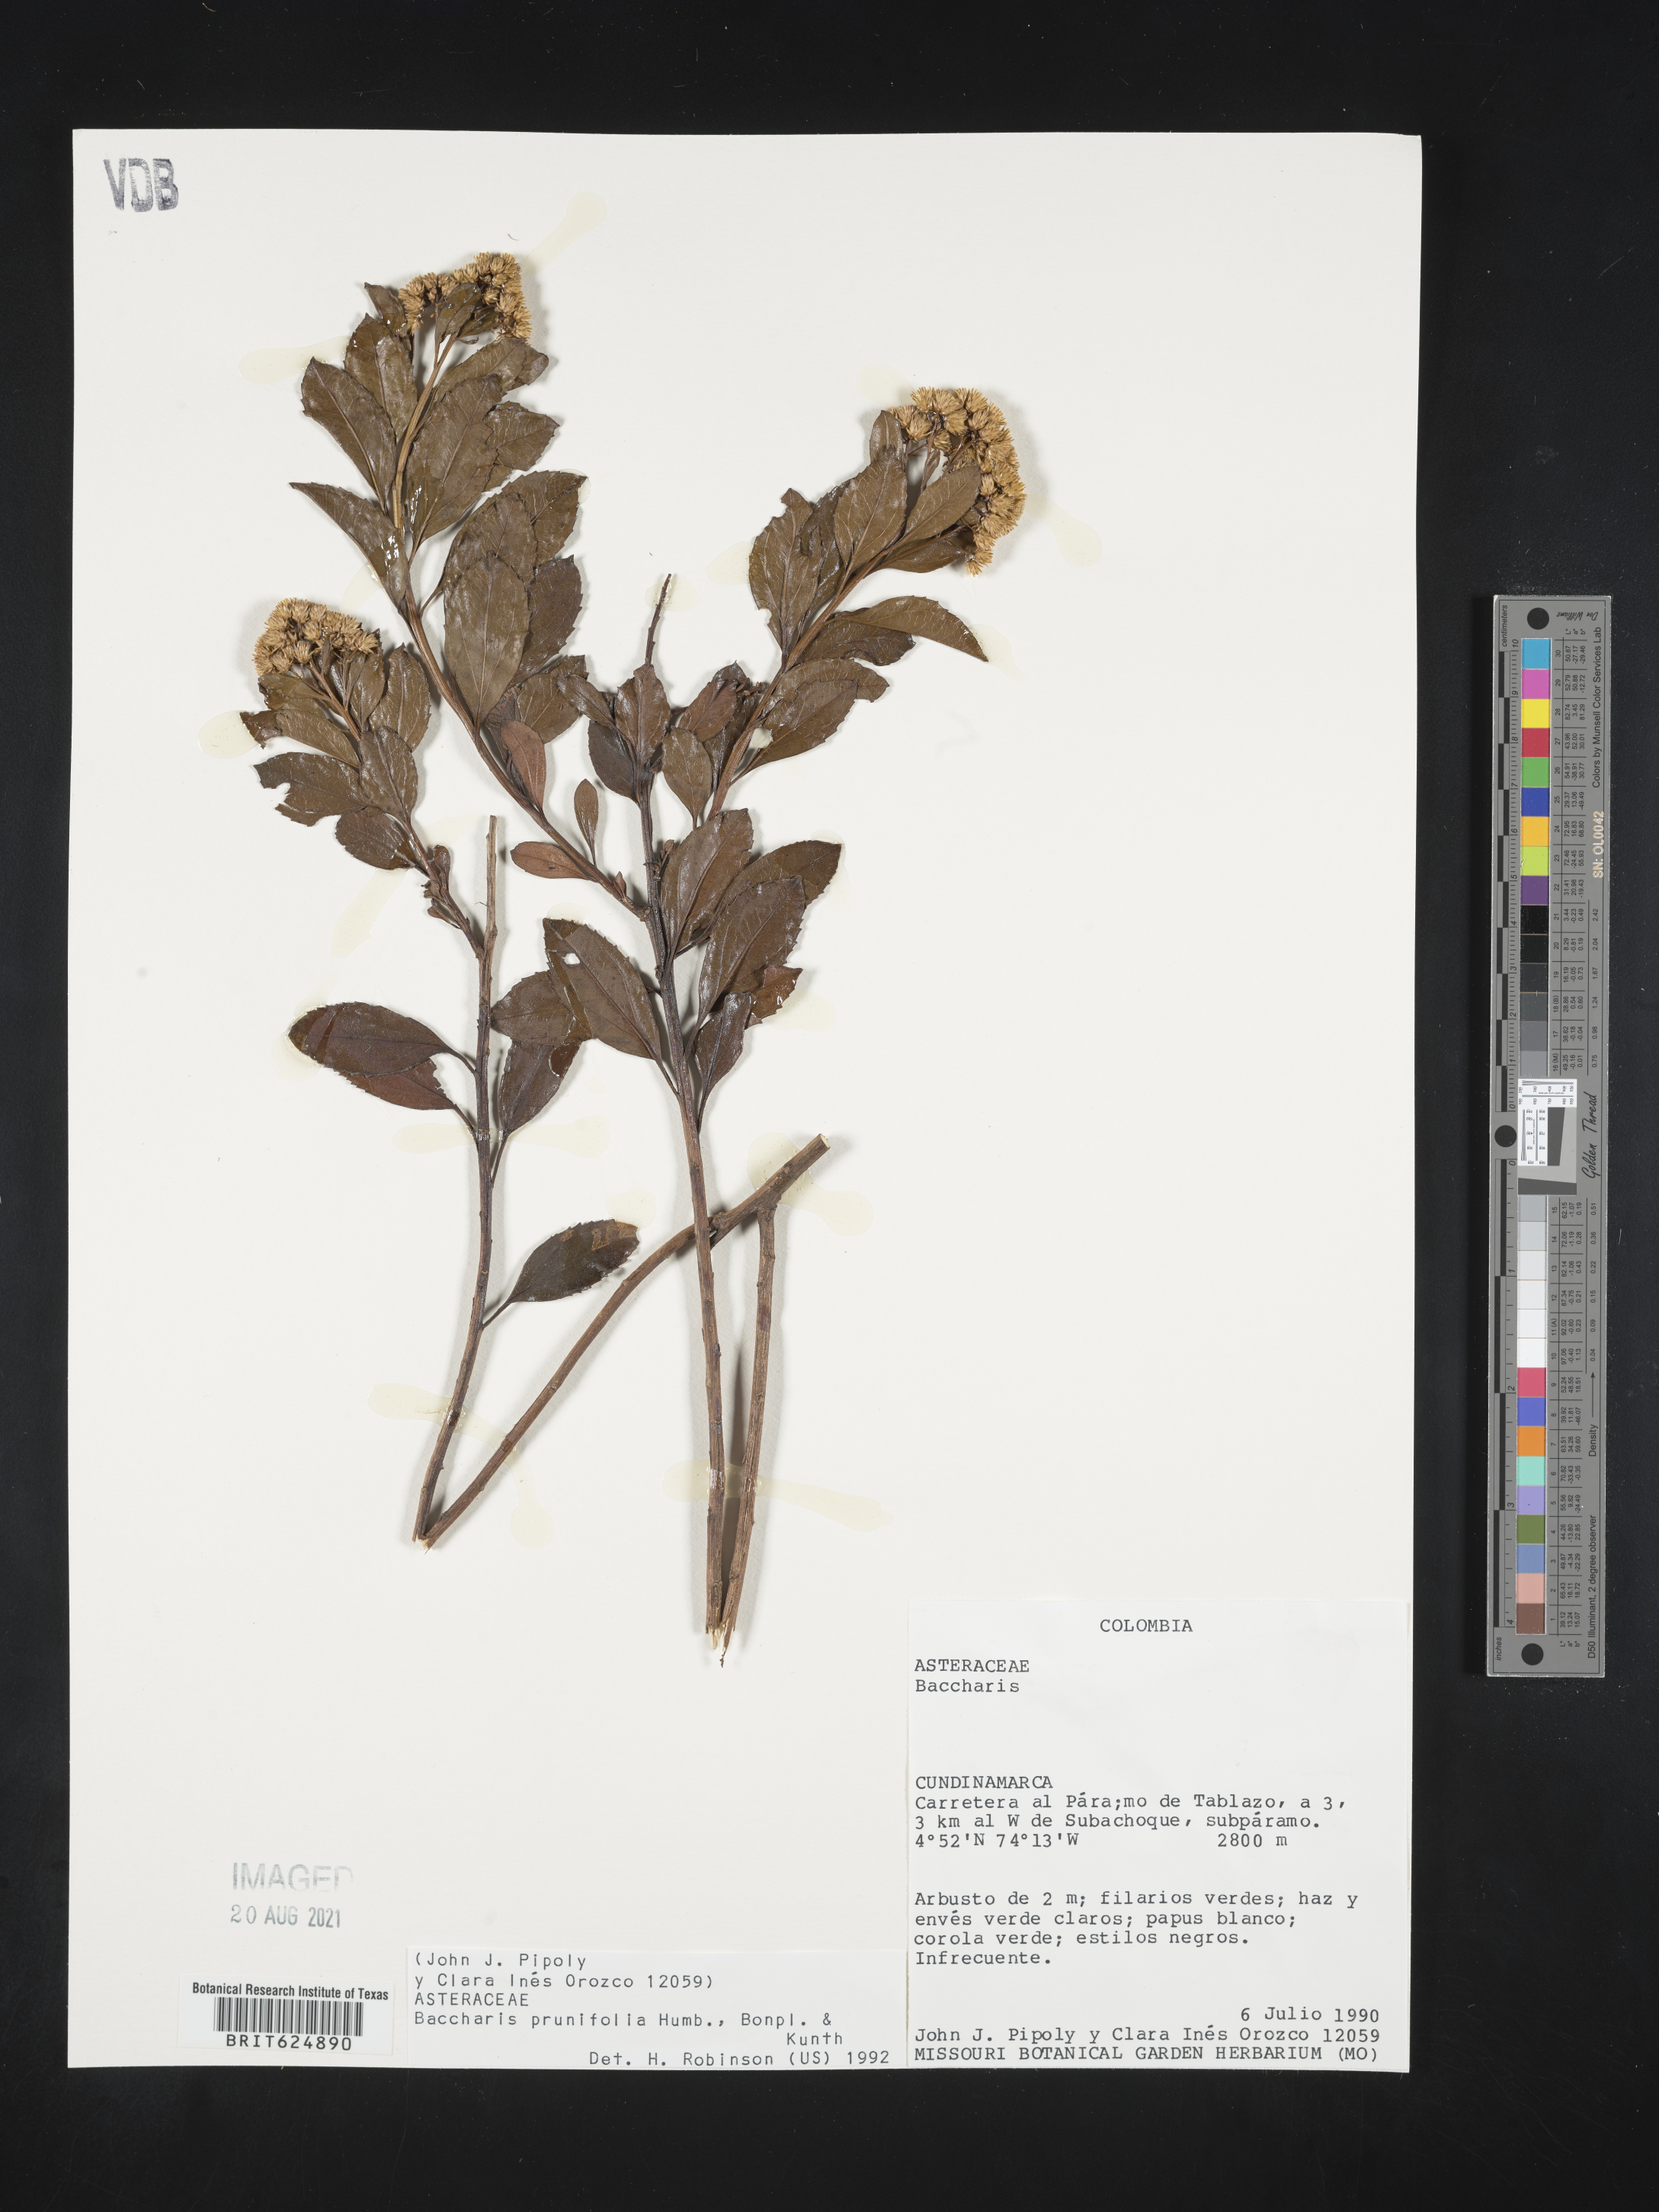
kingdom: Plantae
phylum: Tracheophyta
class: Magnoliopsida
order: Asterales
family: Asteraceae
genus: Baccharis
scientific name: Baccharis prunifolia
